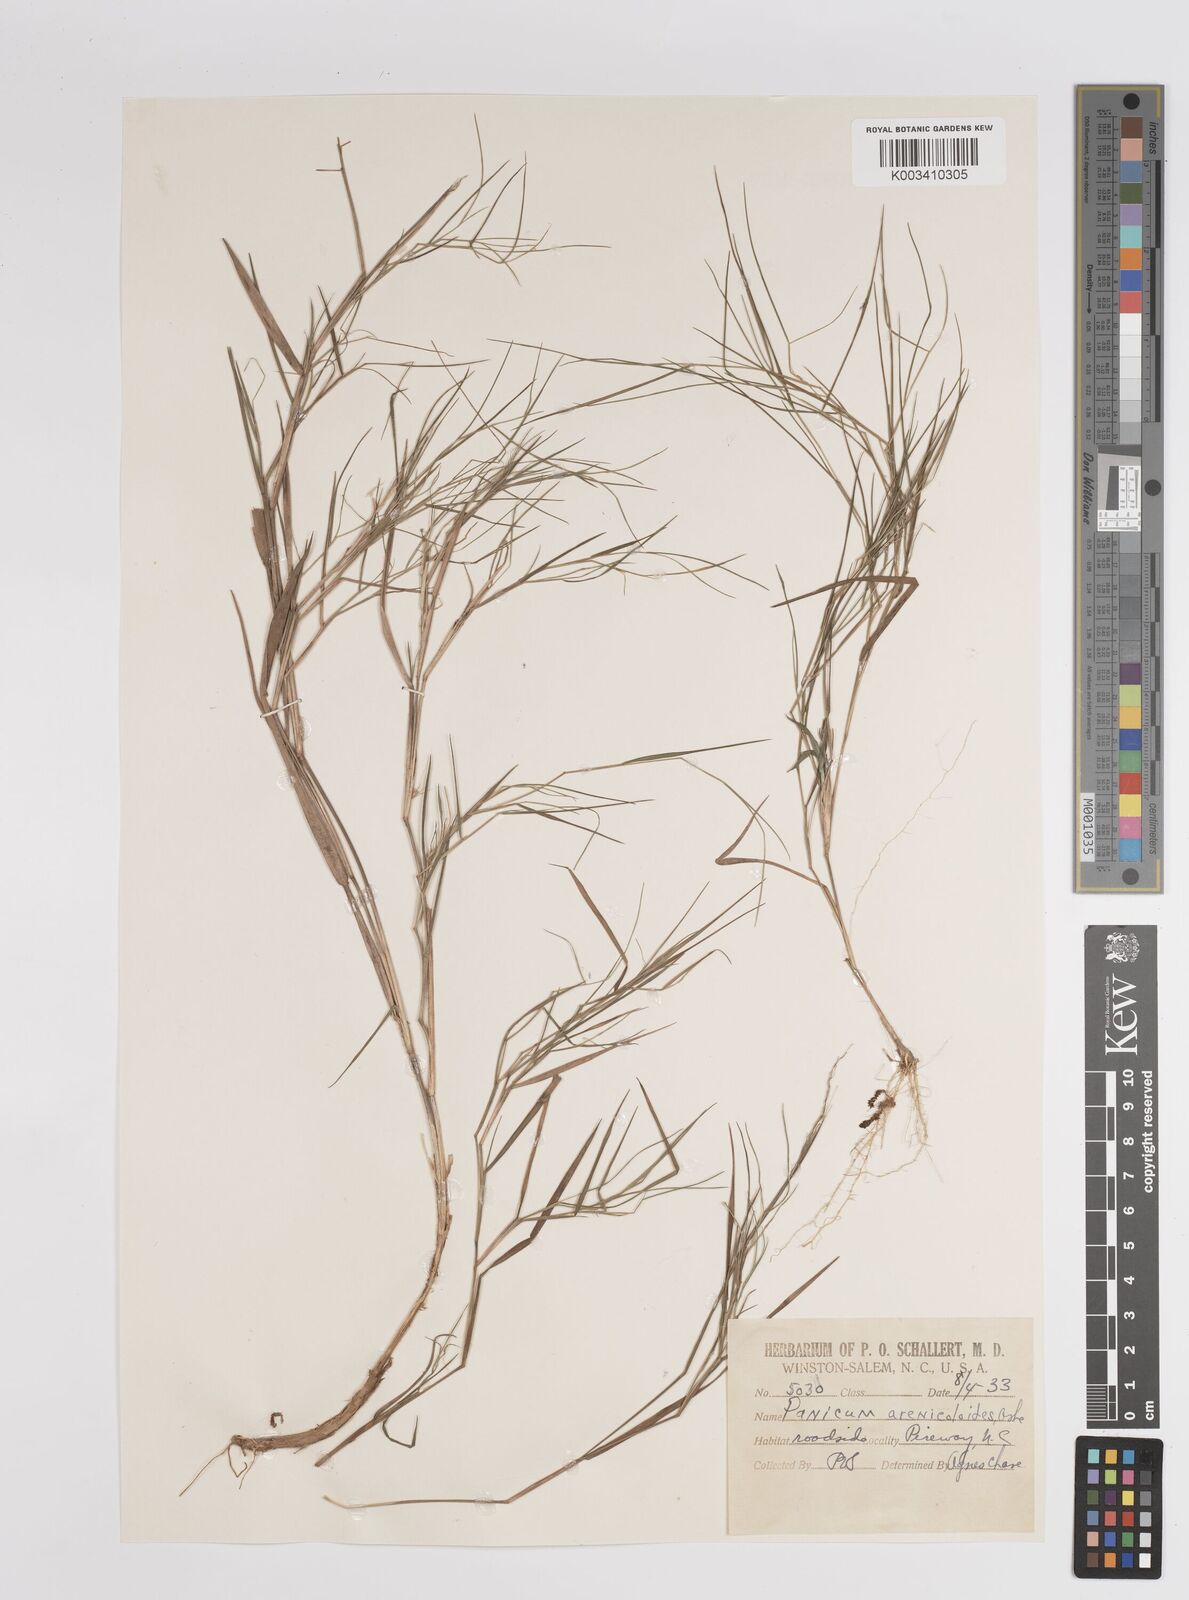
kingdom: Plantae
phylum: Tracheophyta
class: Liliopsida
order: Poales
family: Poaceae
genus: Dichanthelium
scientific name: Dichanthelium aciculare
